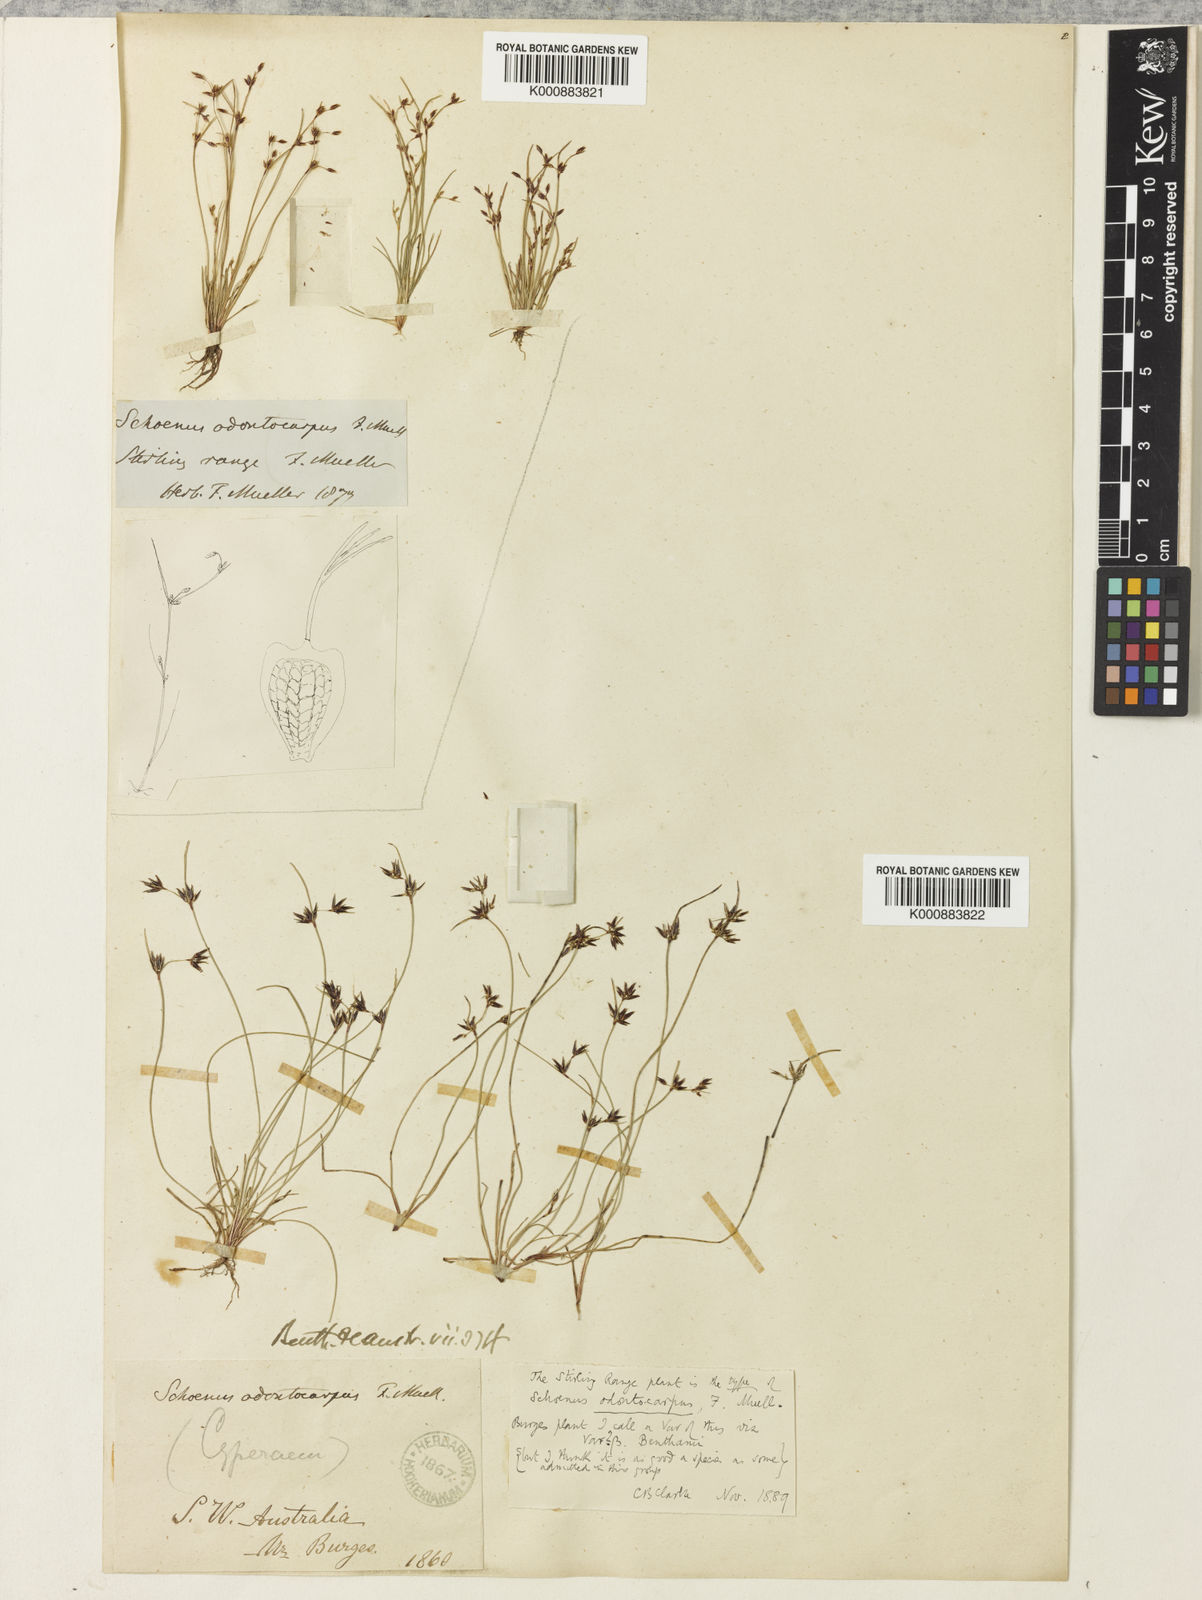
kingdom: Plantae
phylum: Tracheophyta
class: Liliopsida
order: Poales
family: Cyperaceae
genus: Schoenus
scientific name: Schoenus odontocarpus
